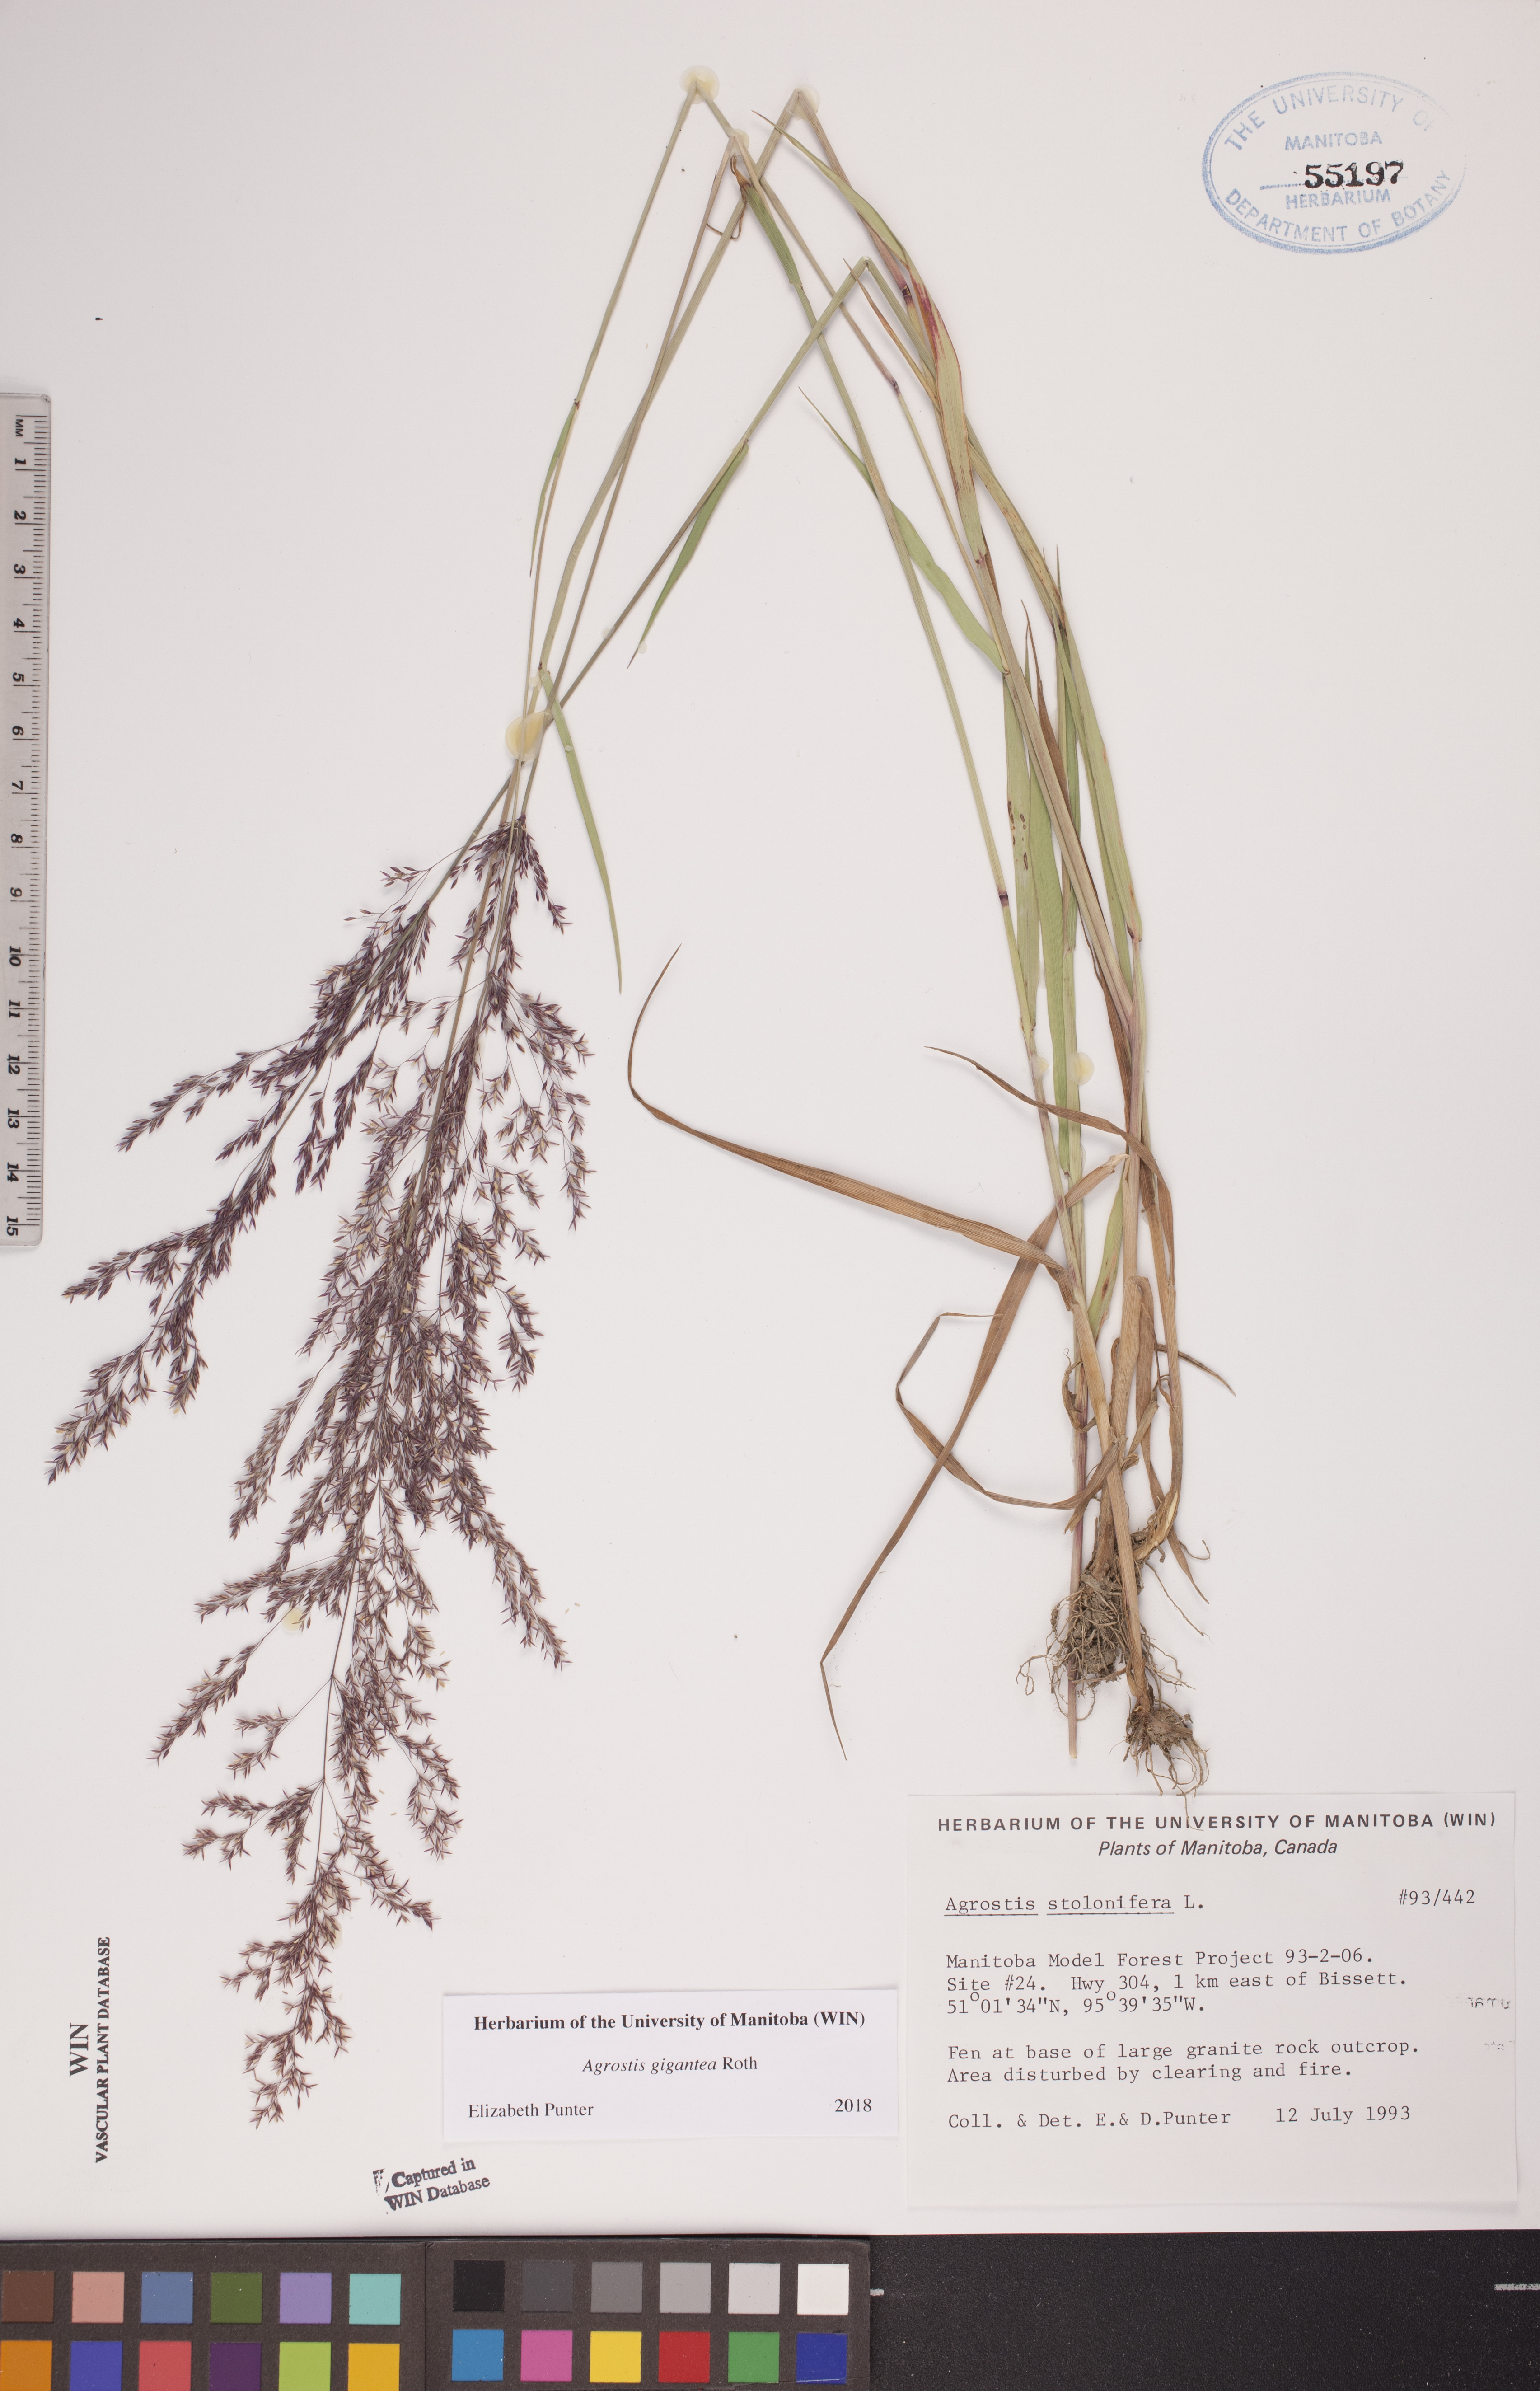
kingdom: Plantae
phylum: Tracheophyta
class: Liliopsida
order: Poales
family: Poaceae
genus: Agrostis
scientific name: Agrostis gigantea
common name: Black bent
